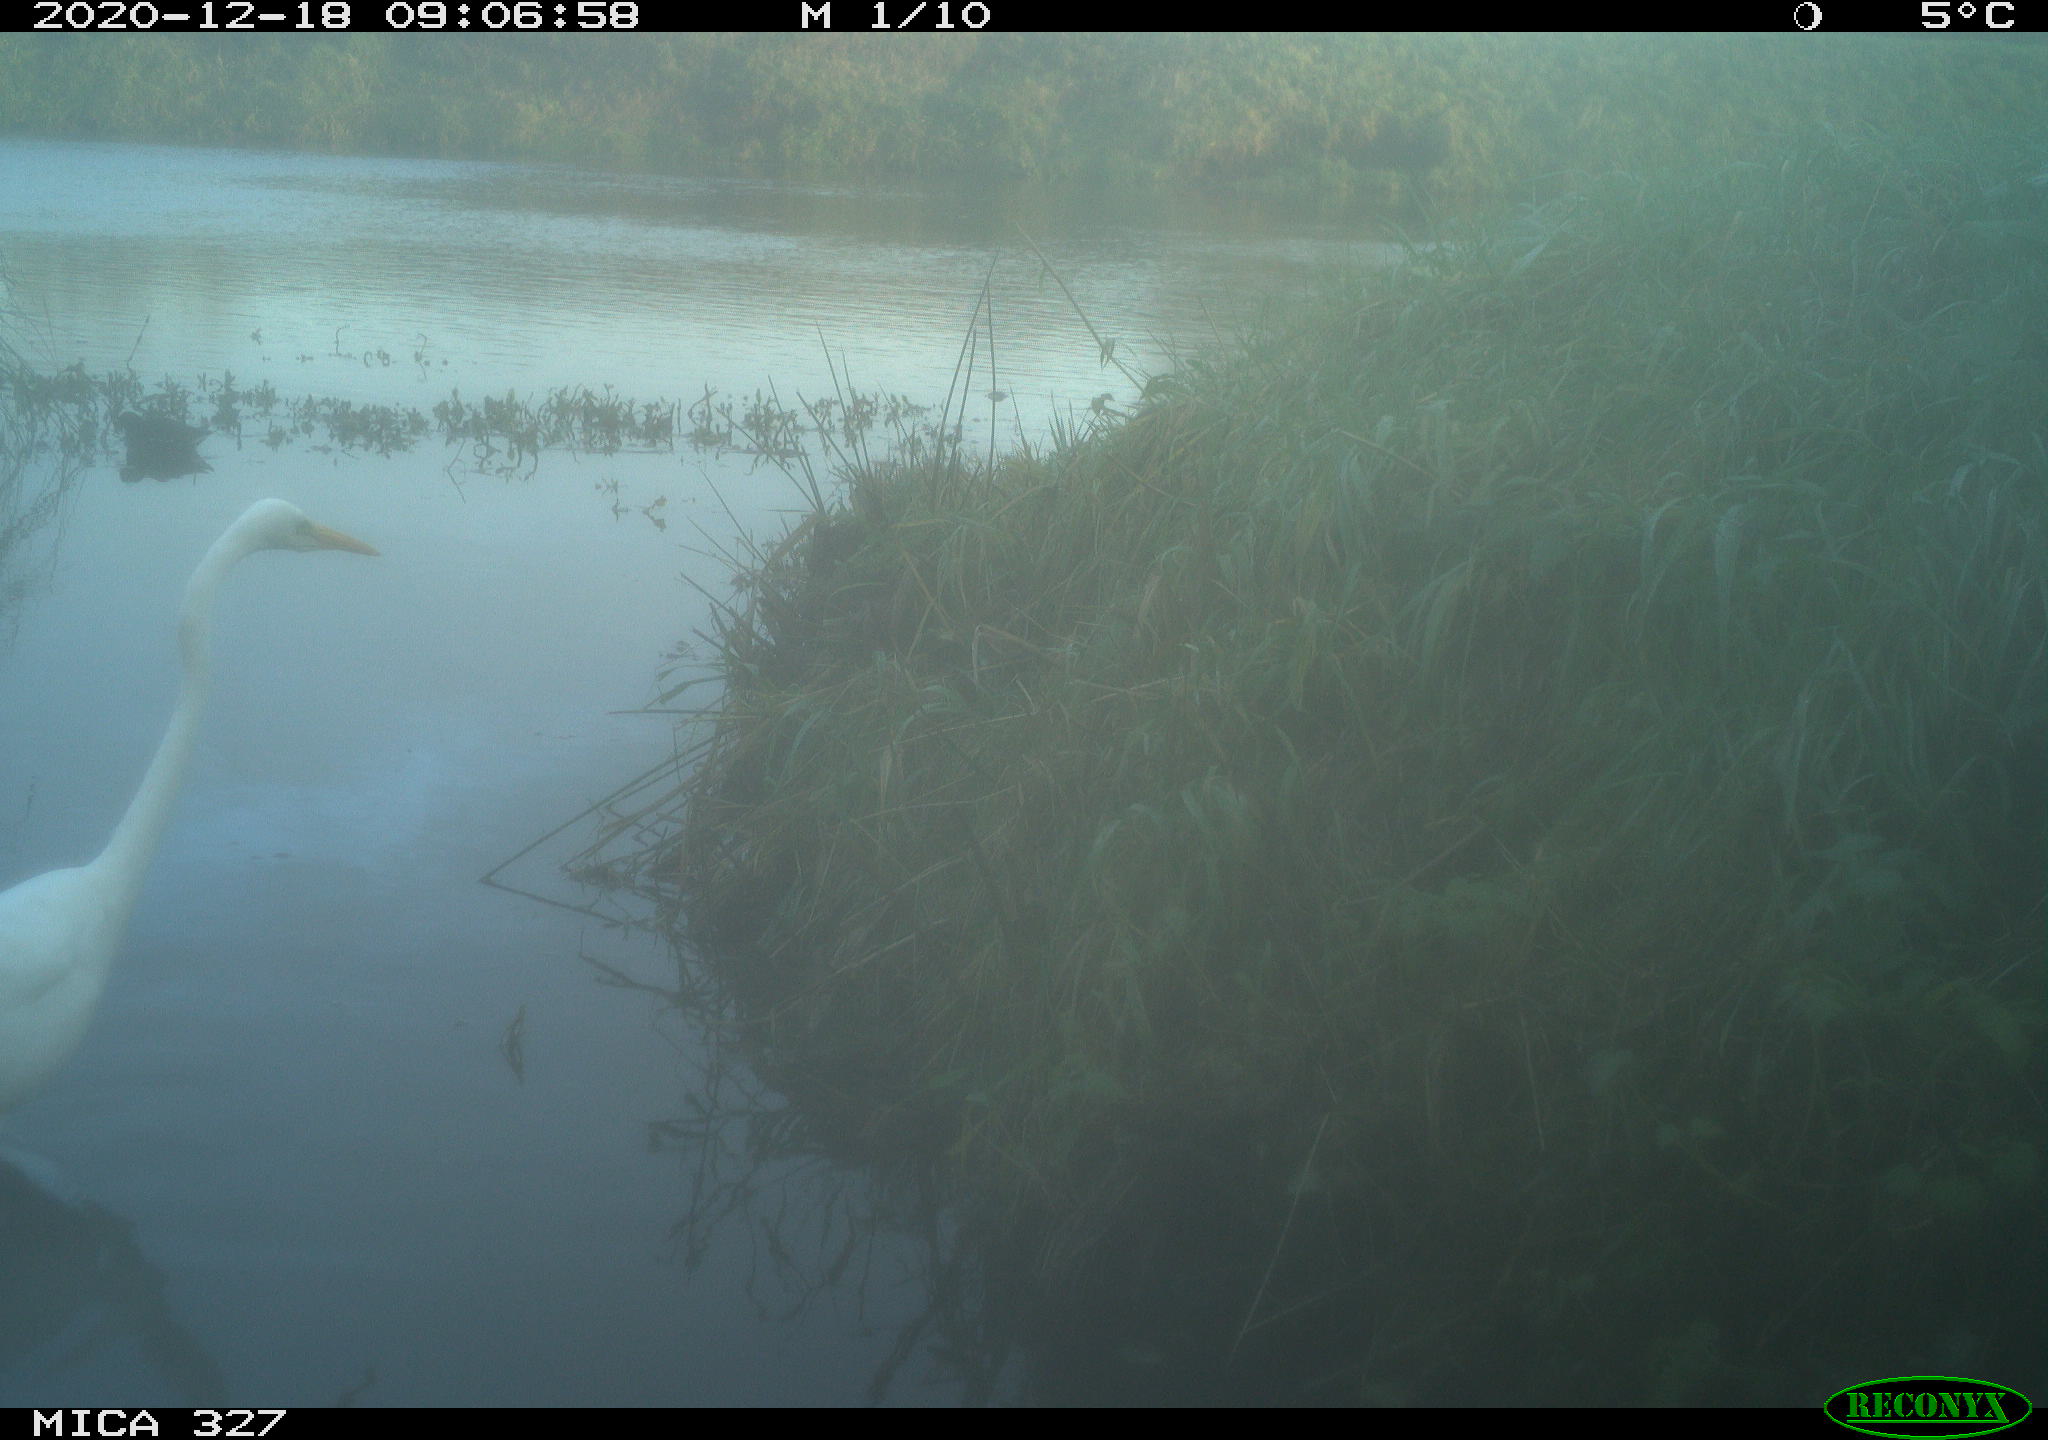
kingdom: Animalia
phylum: Chordata
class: Aves
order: Pelecaniformes
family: Ardeidae
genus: Ardea
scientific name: Ardea alba
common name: Great egret
